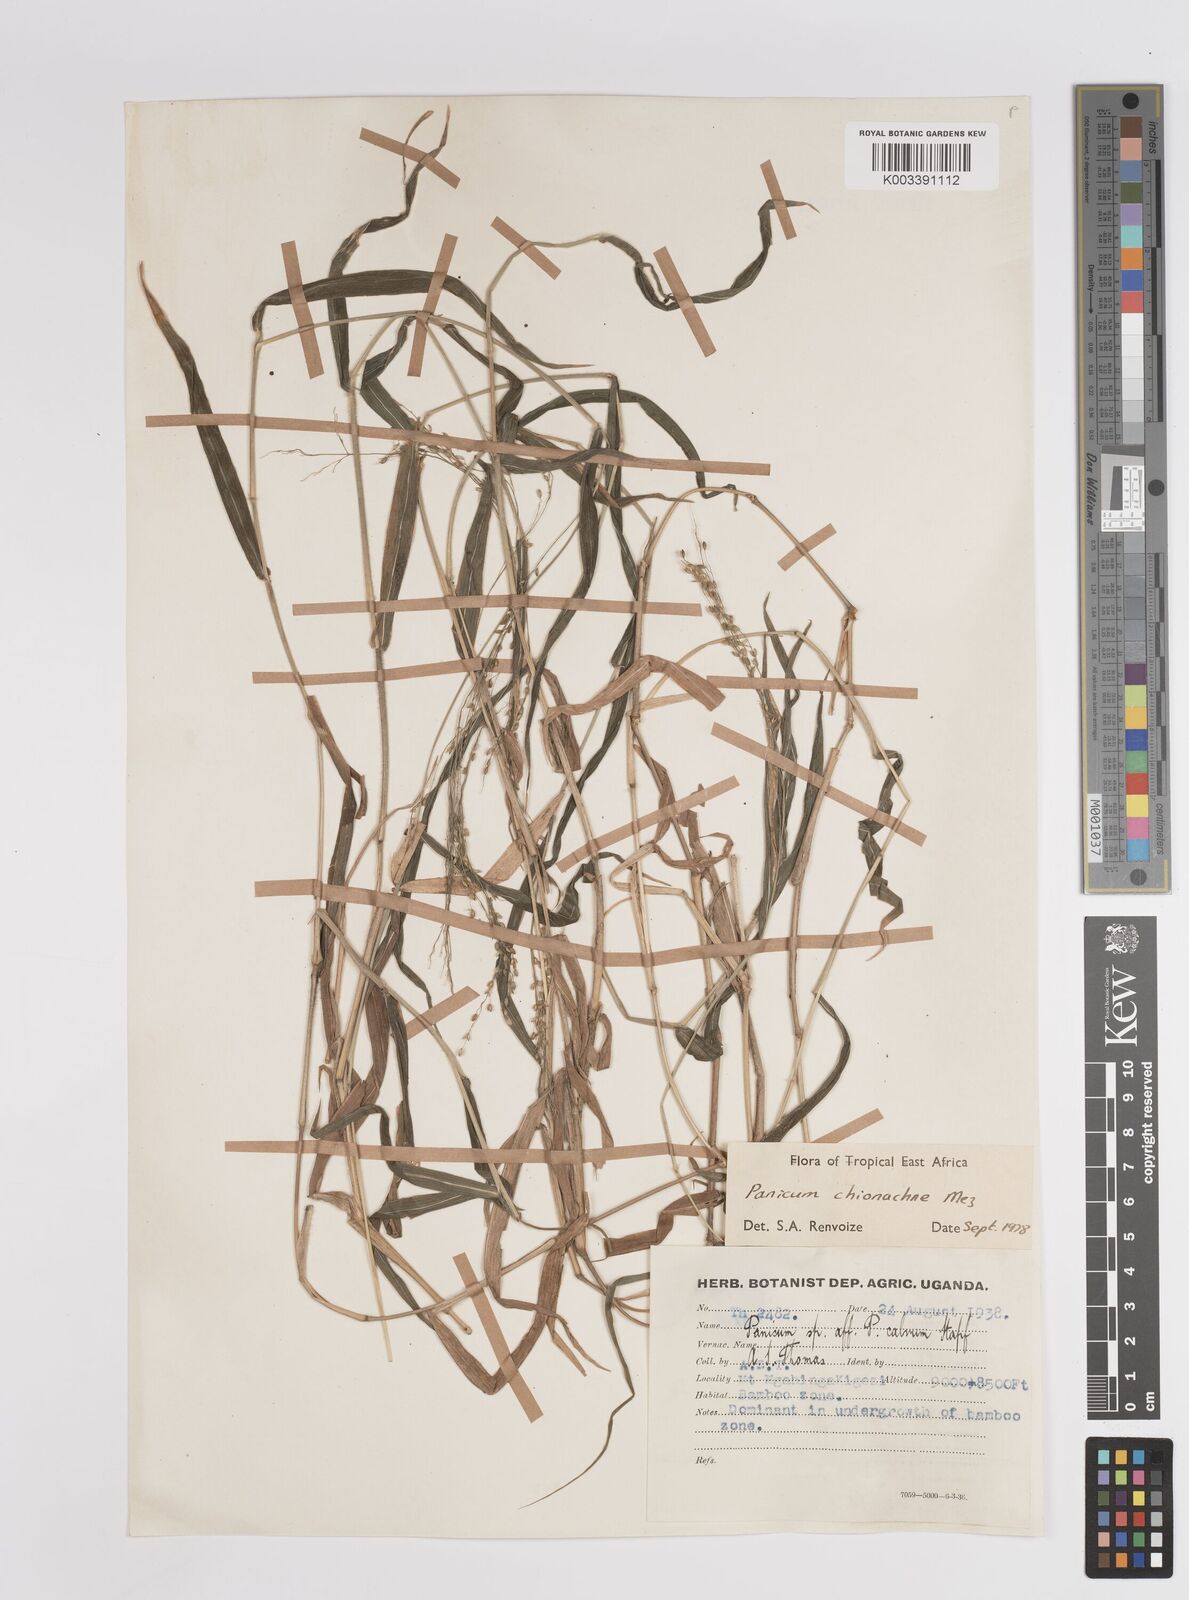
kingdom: Plantae
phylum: Tracheophyta
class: Liliopsida
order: Poales
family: Poaceae
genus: Panicum
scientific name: Panicum chionachne
